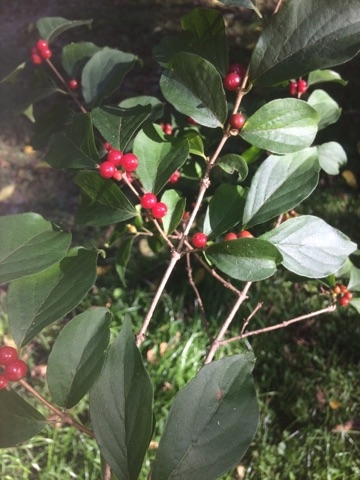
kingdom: Plantae
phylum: Tracheophyta
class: Magnoliopsida
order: Dipsacales
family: Caprifoliaceae
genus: Lonicera
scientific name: Lonicera maackii
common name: Amur honeysuckle
